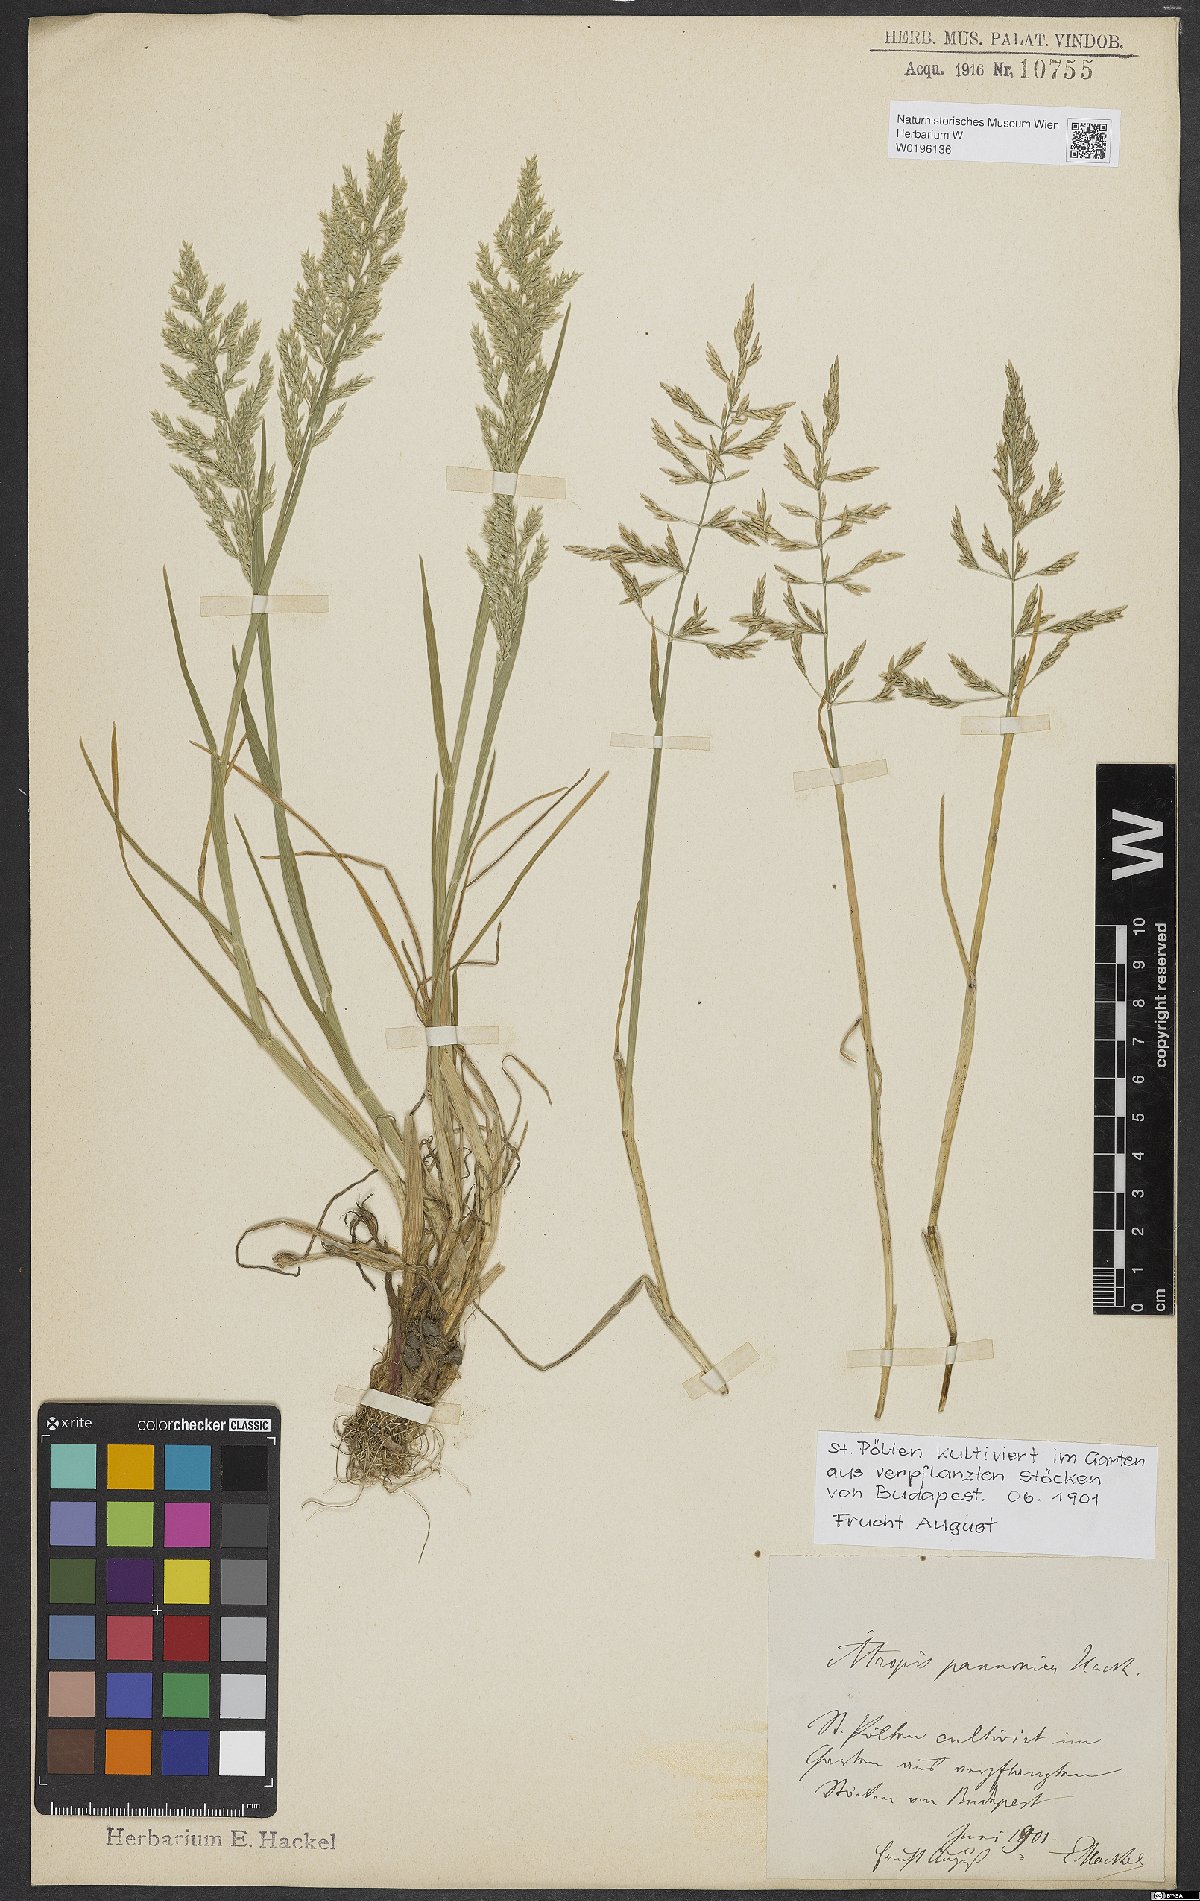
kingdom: Plantae
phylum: Tracheophyta
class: Liliopsida
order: Poales
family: Poaceae
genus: Puccinellia
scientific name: Puccinellia pannonica
